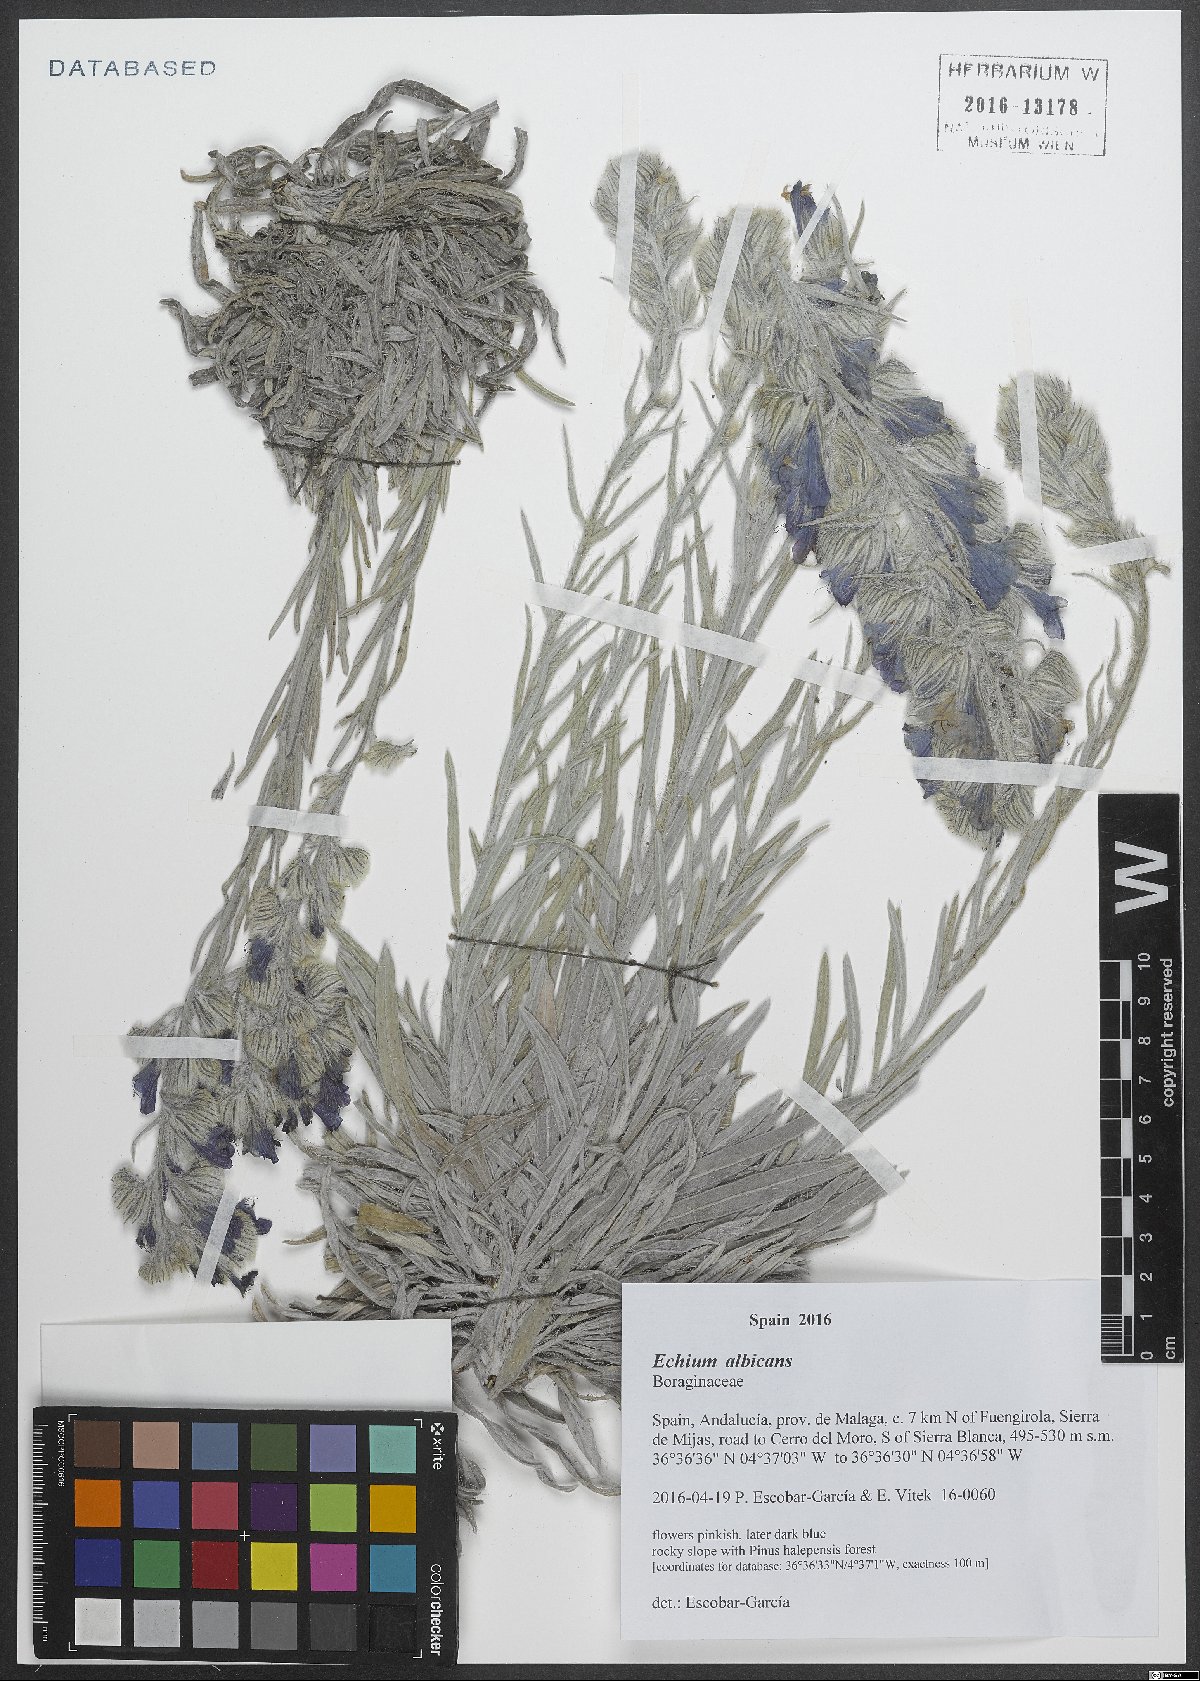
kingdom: Plantae
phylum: Tracheophyta
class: Magnoliopsida
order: Boraginales
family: Boraginaceae
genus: Echium
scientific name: Echium albicans
